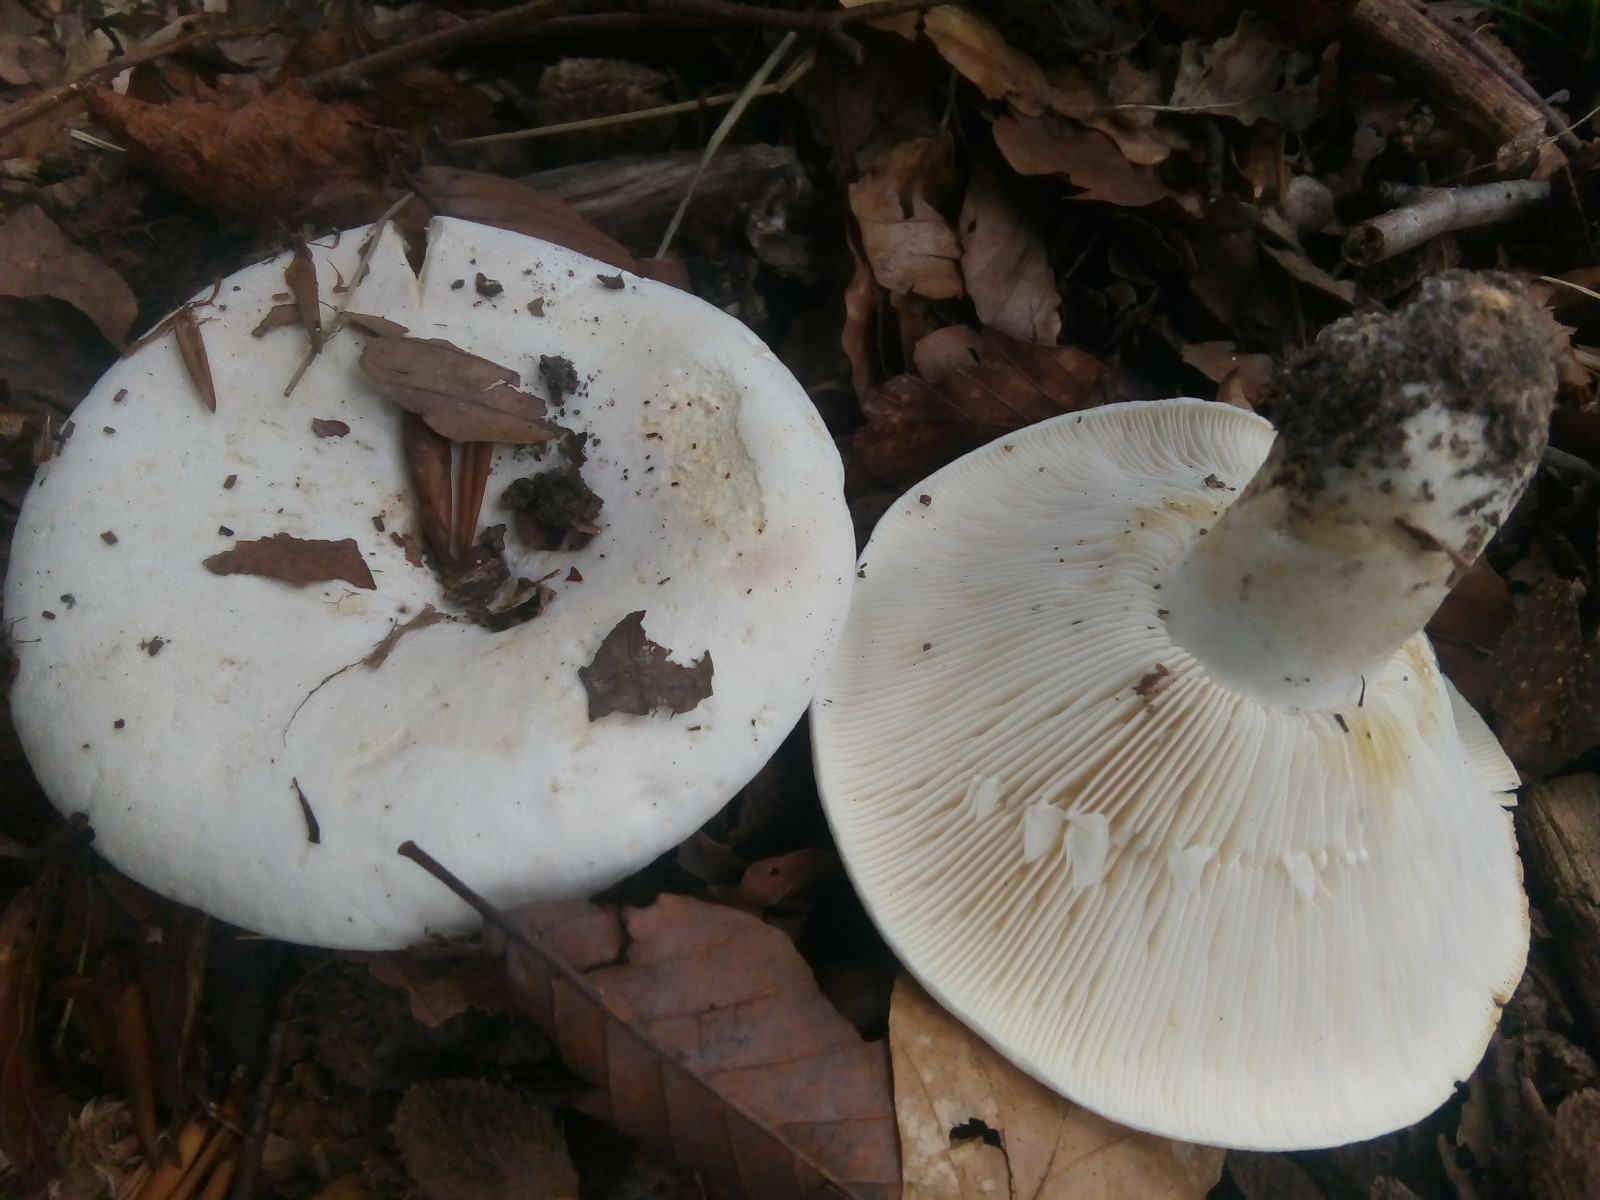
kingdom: Fungi
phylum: Basidiomycota
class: Agaricomycetes
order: Russulales
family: Russulaceae
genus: Lactifluus
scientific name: Lactifluus bertillonii
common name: blødfiltet mælkehat
